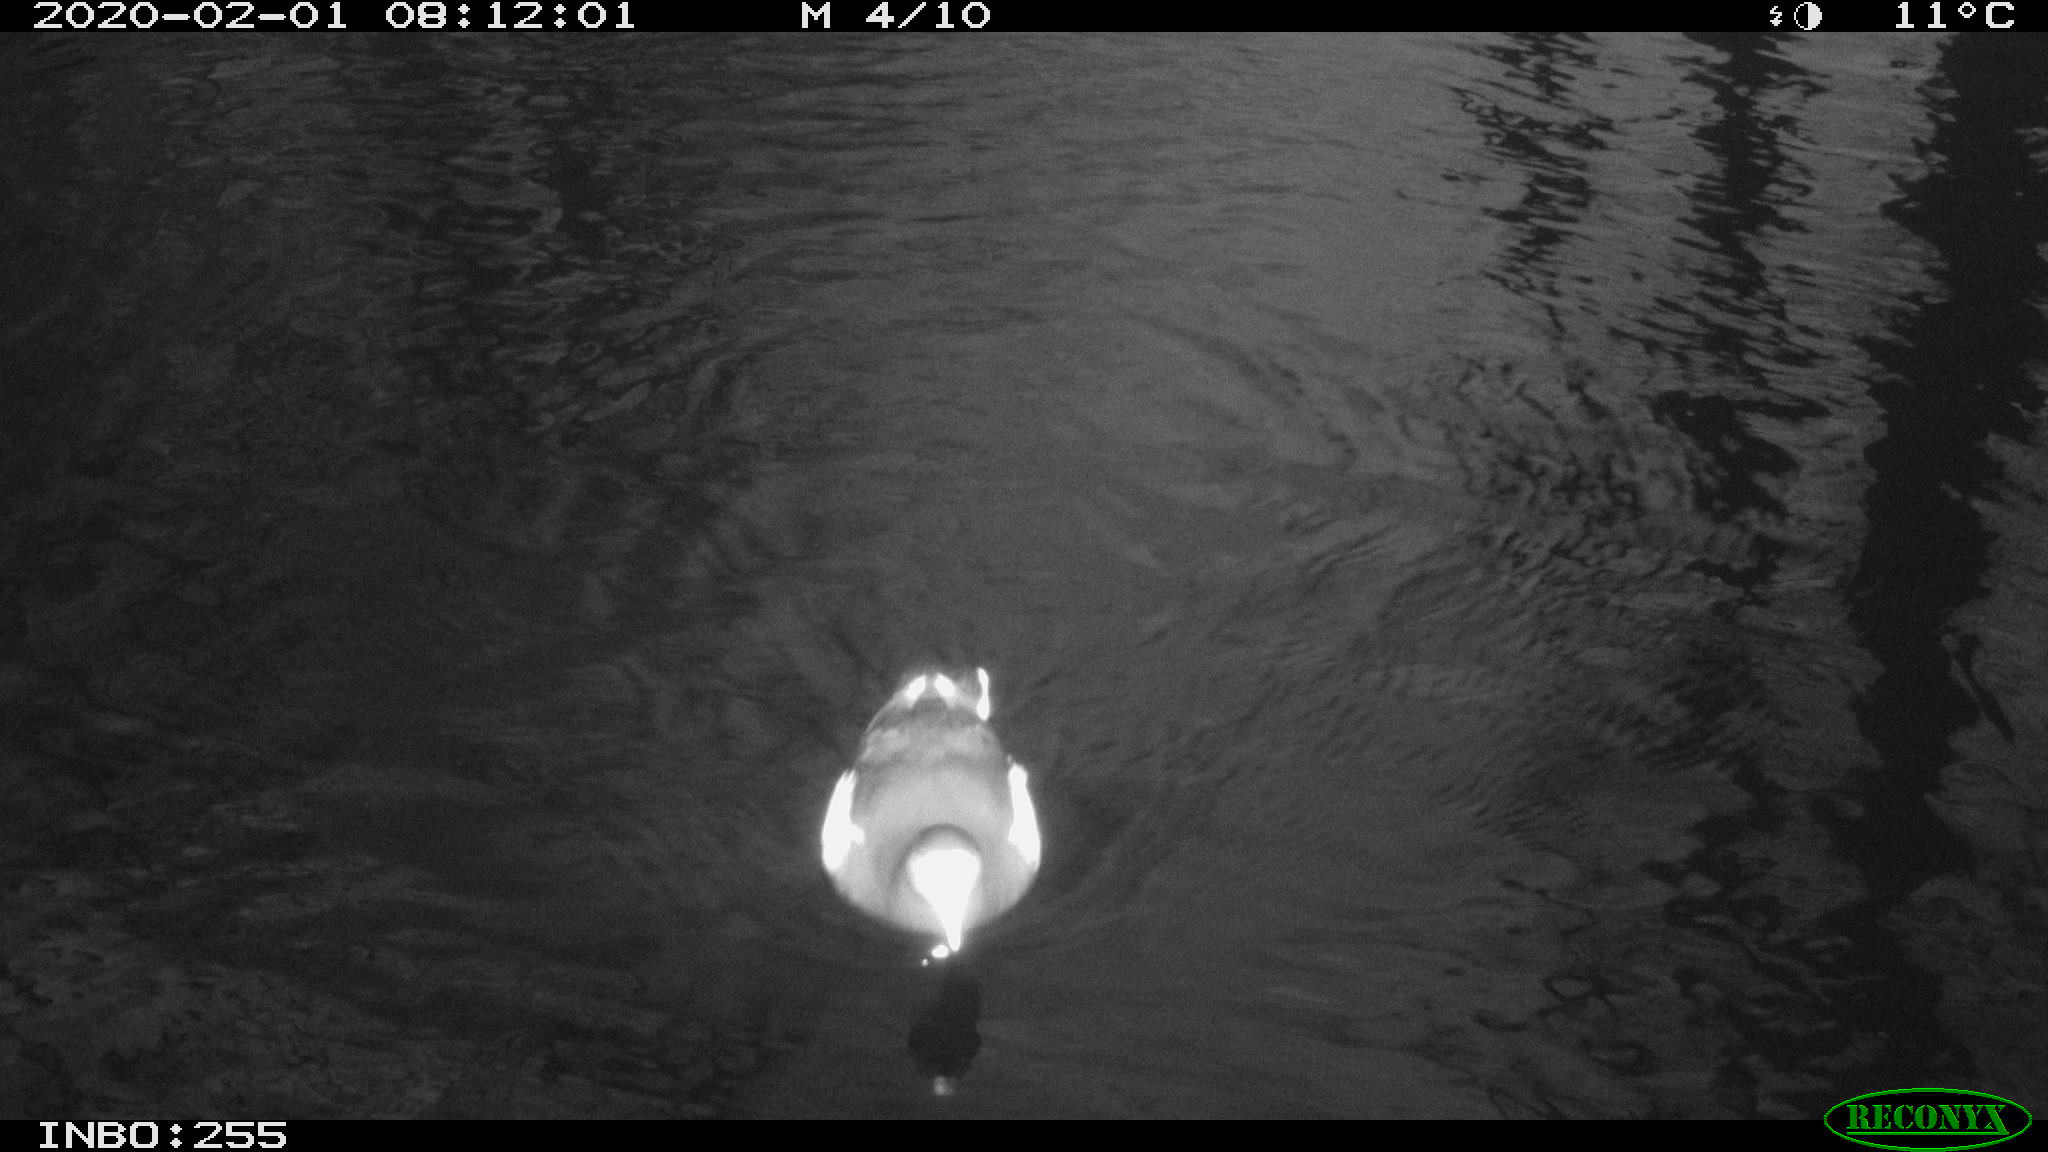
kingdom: Animalia
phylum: Chordata
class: Aves
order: Gruiformes
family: Rallidae
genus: Gallinula
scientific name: Gallinula chloropus
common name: Common moorhen
